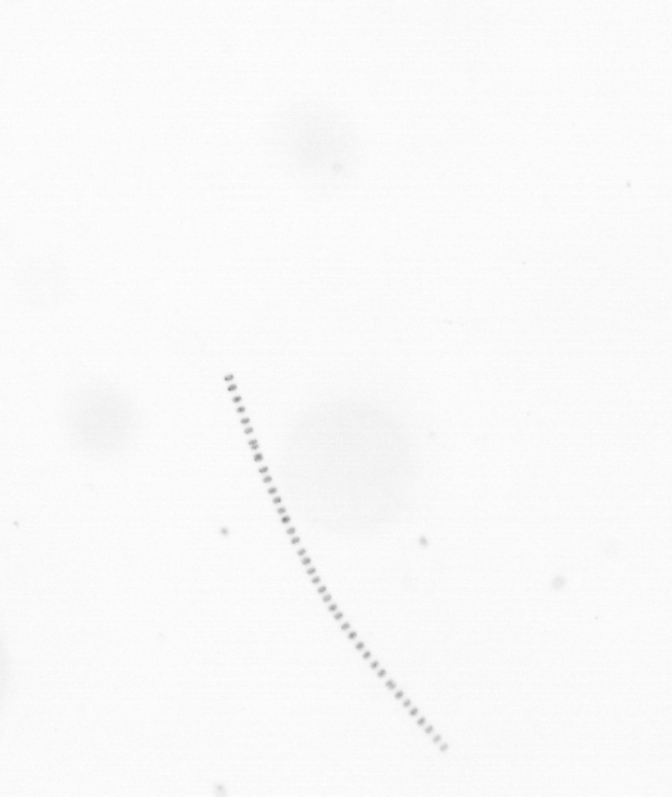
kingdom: Chromista
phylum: Ochrophyta
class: Bacillariophyceae
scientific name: Bacillariophyceae
